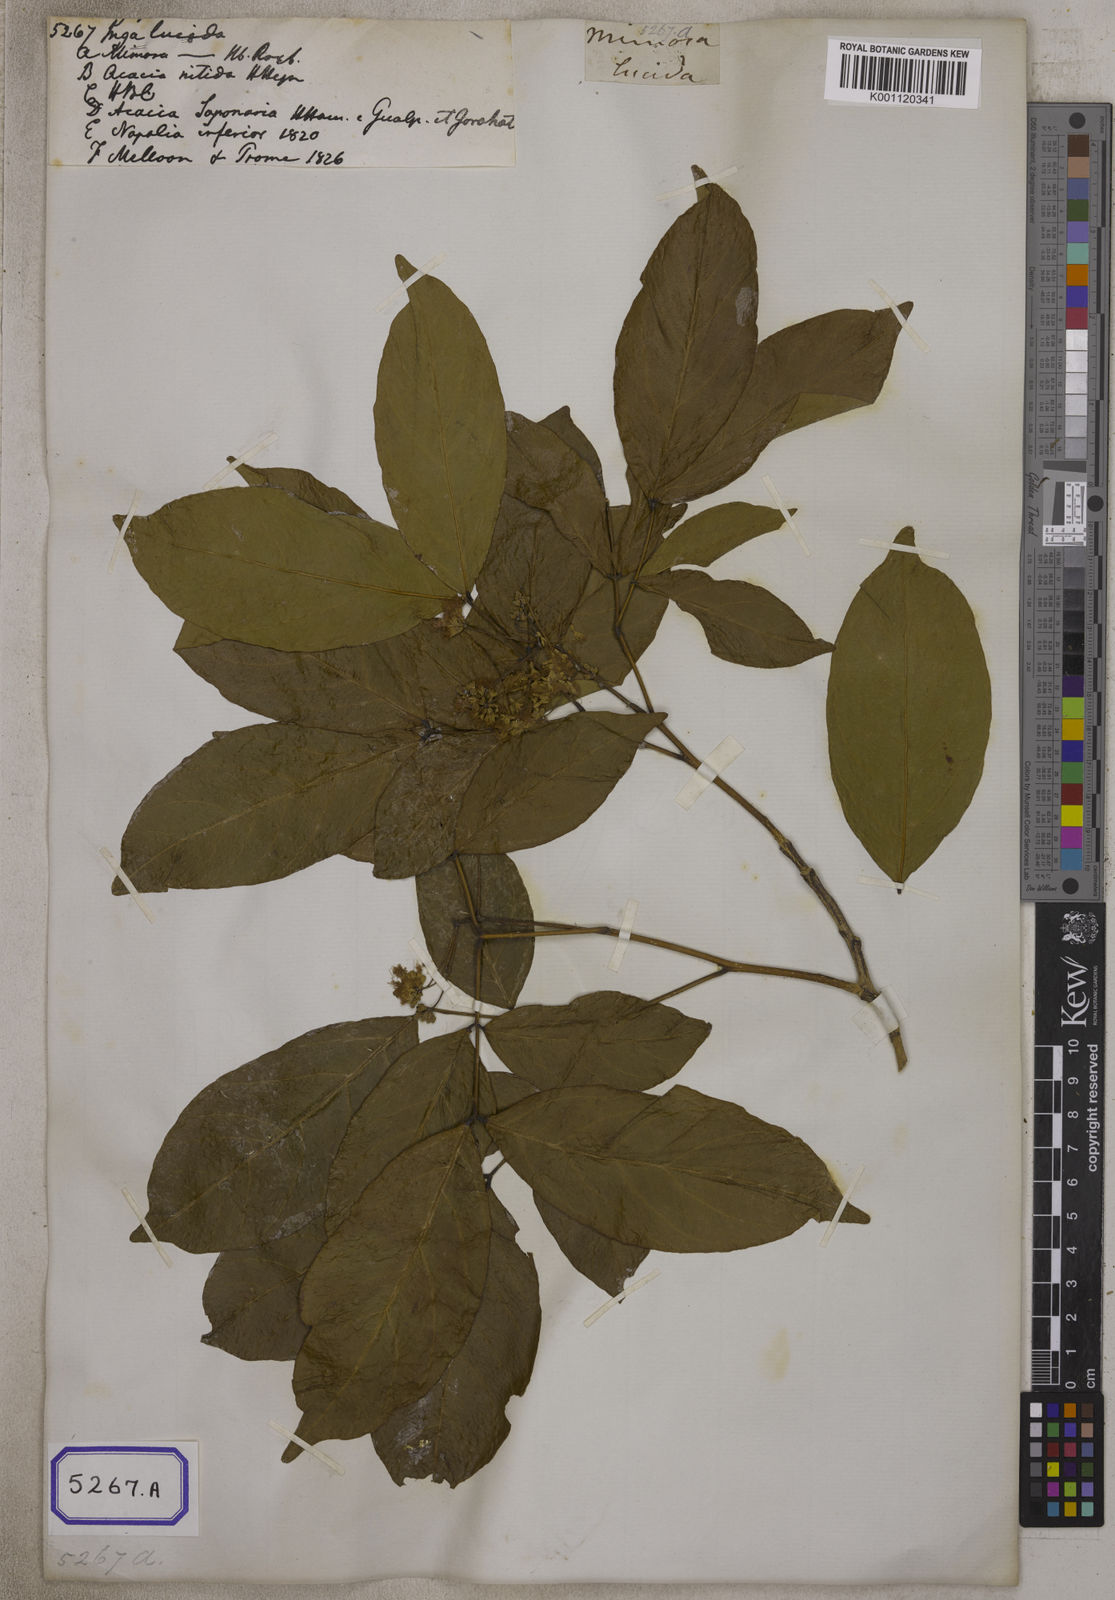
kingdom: Plantae
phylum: Tracheophyta
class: Magnoliopsida
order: Fabales
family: Fabaceae
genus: Albizia
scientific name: Albizia lucidior
